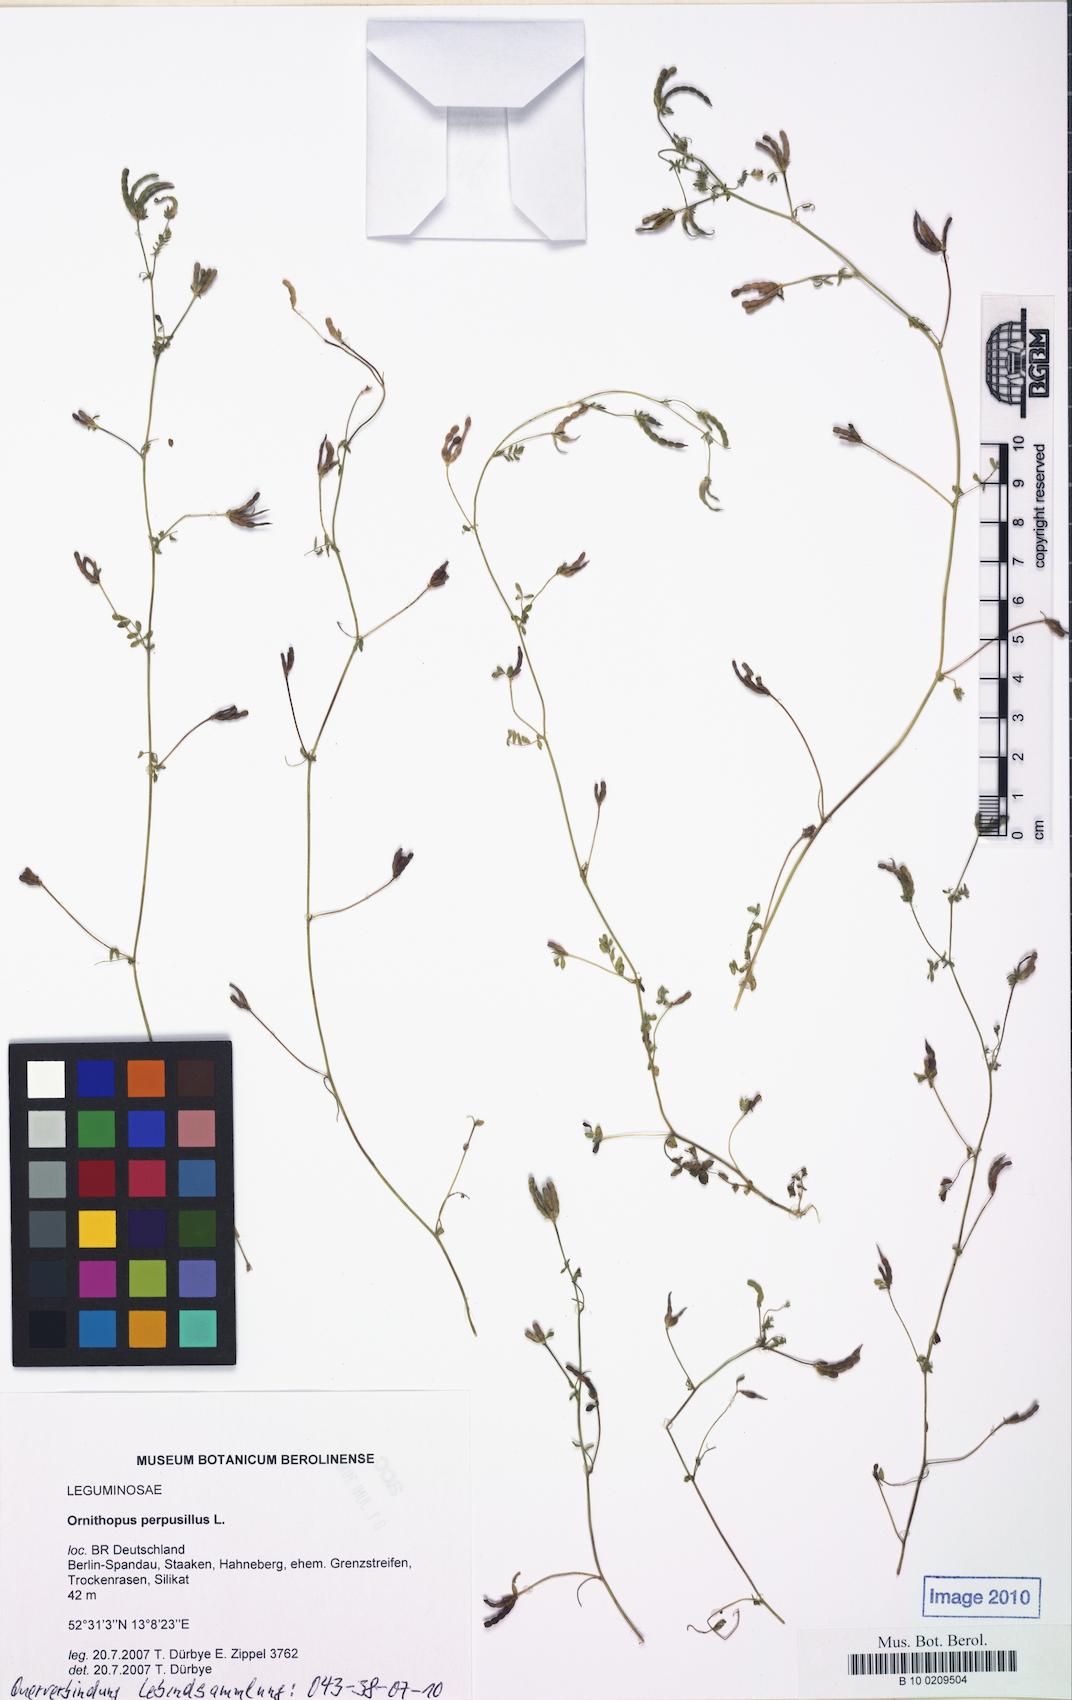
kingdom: Plantae
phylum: Tracheophyta
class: Magnoliopsida
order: Fabales
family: Fabaceae
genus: Ornithopus
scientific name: Ornithopus perpusillus
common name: Bird's-foot
